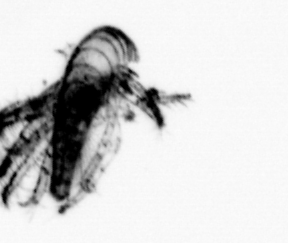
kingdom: Animalia
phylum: Arthropoda
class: Maxillopoda
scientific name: Maxillopoda
